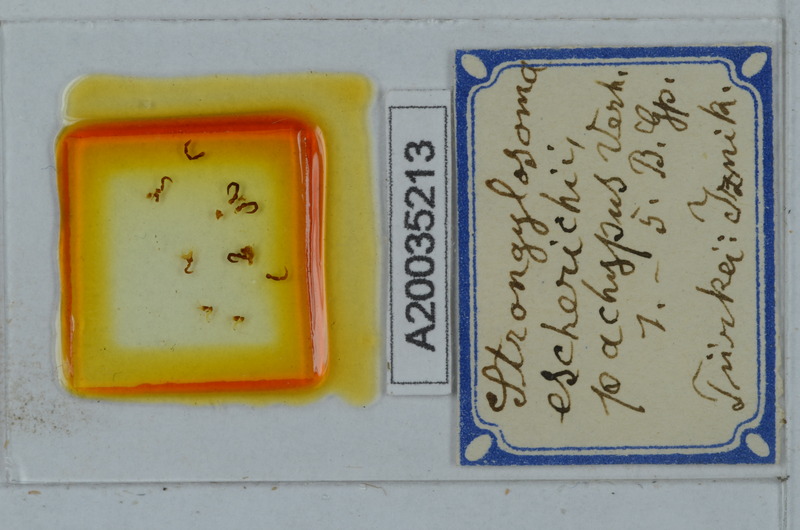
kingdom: Animalia
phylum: Arthropoda
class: Diplopoda
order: Polydesmida
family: Paradoxosomatidae
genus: Strongylosoma
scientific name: Strongylosoma escherichii
